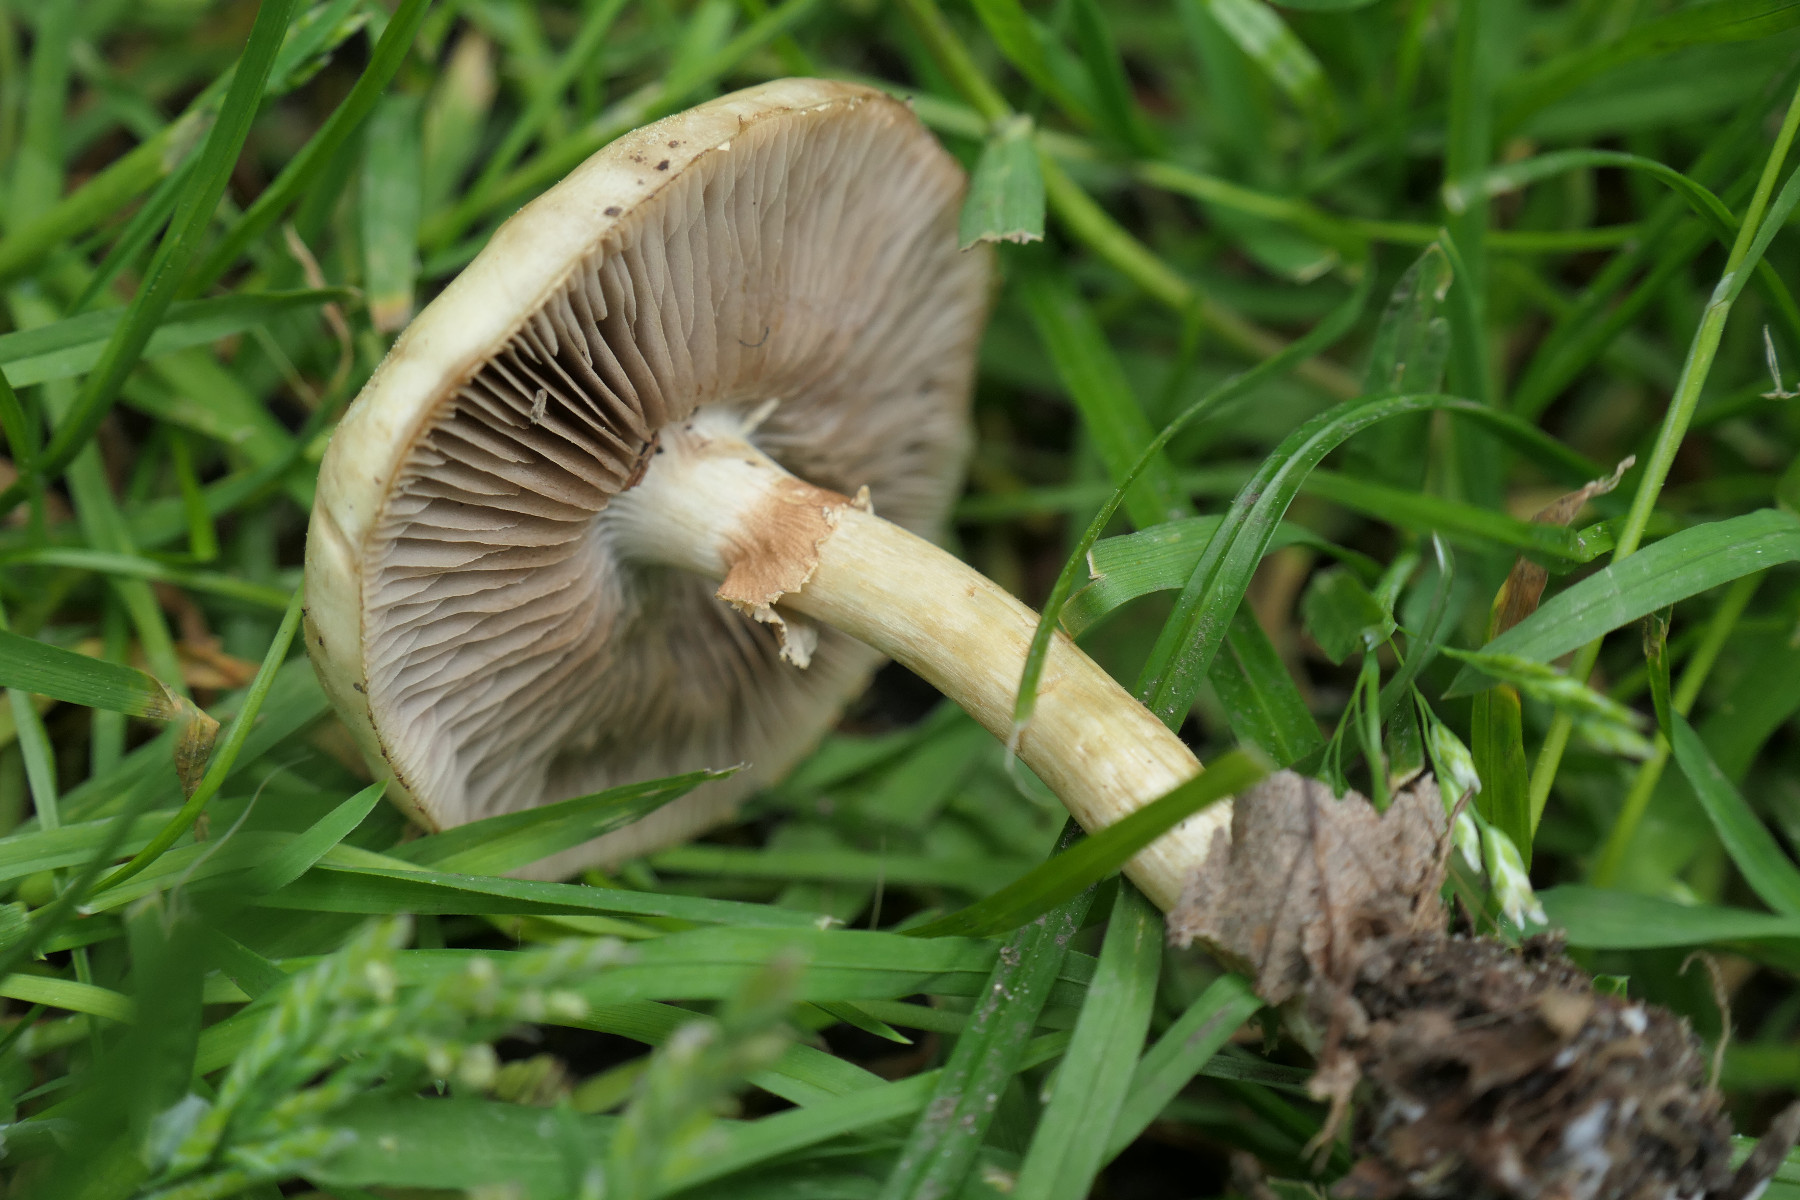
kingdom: Fungi
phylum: Basidiomycota
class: Agaricomycetes
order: Agaricales
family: Strophariaceae
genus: Agrocybe
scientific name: Agrocybe praecox
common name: tidlig agerhat
